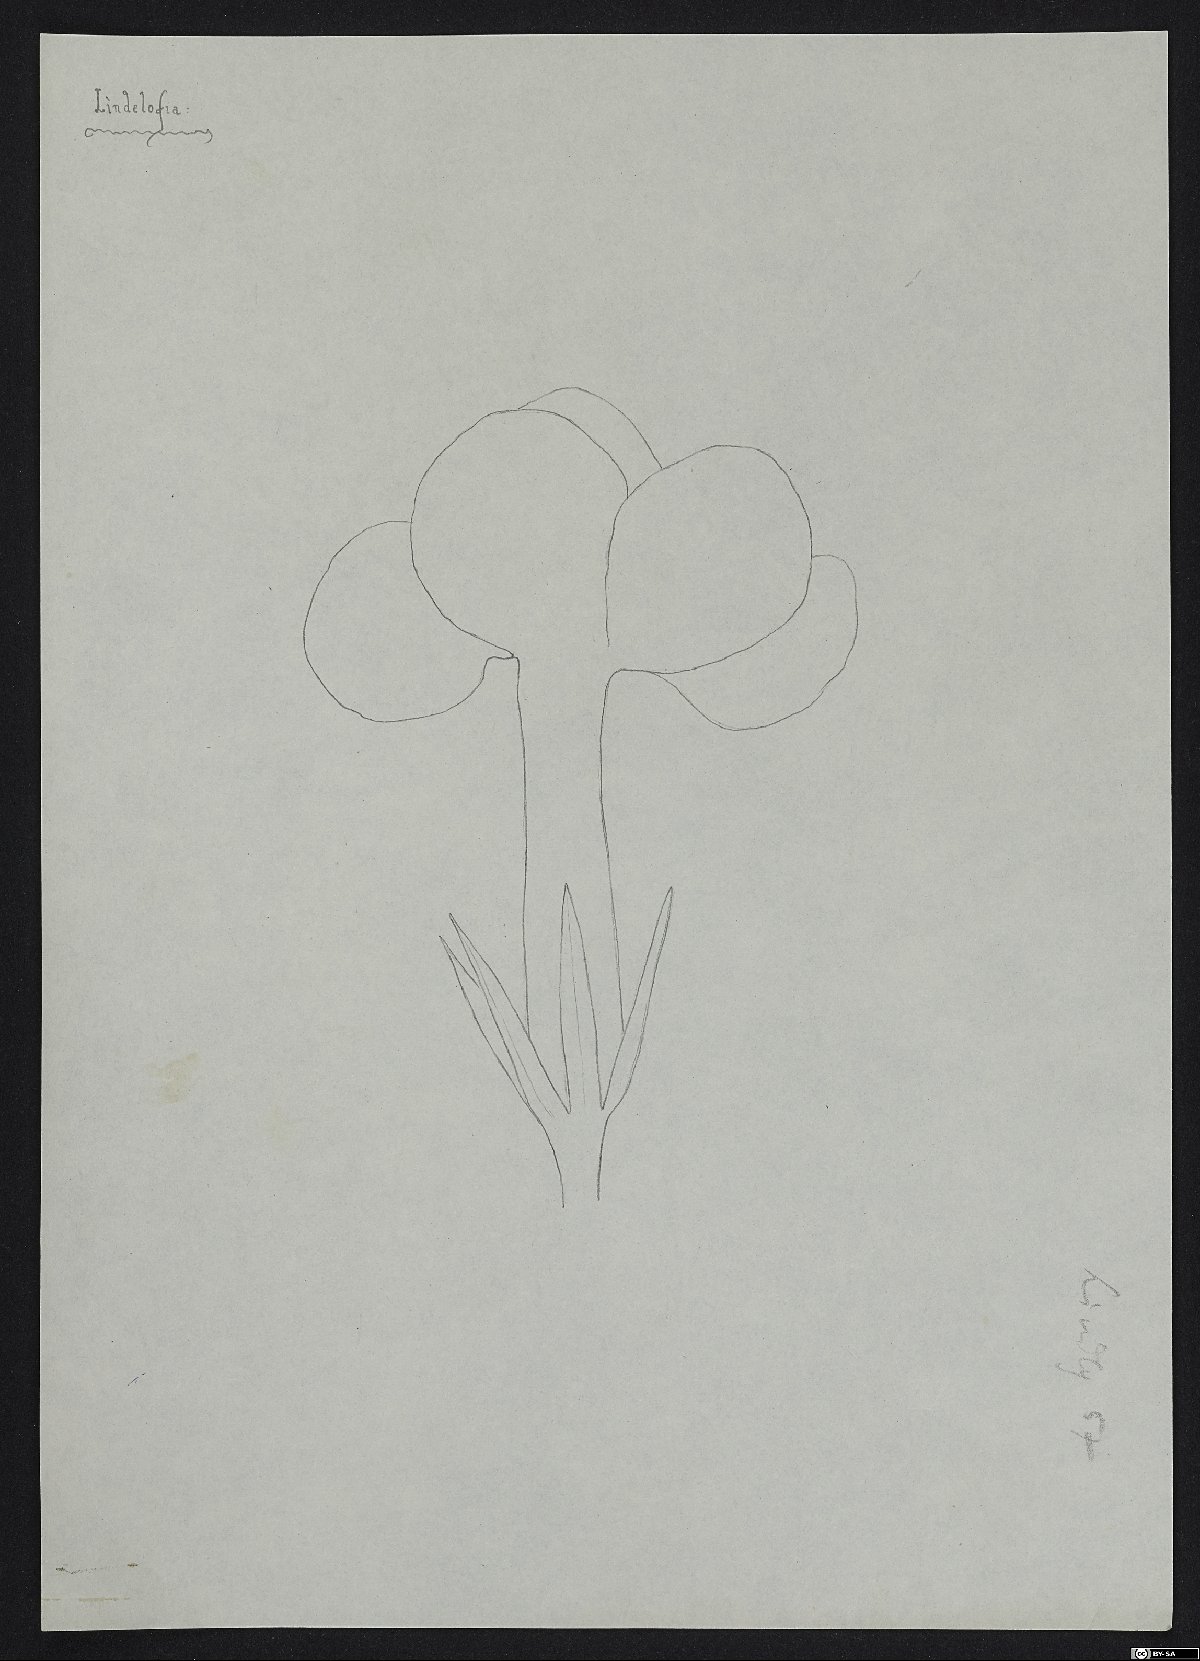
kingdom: Plantae
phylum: Tracheophyta
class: Magnoliopsida
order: Boraginales
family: Boraginaceae
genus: Paracaryum
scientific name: Paracaryum dielsii
